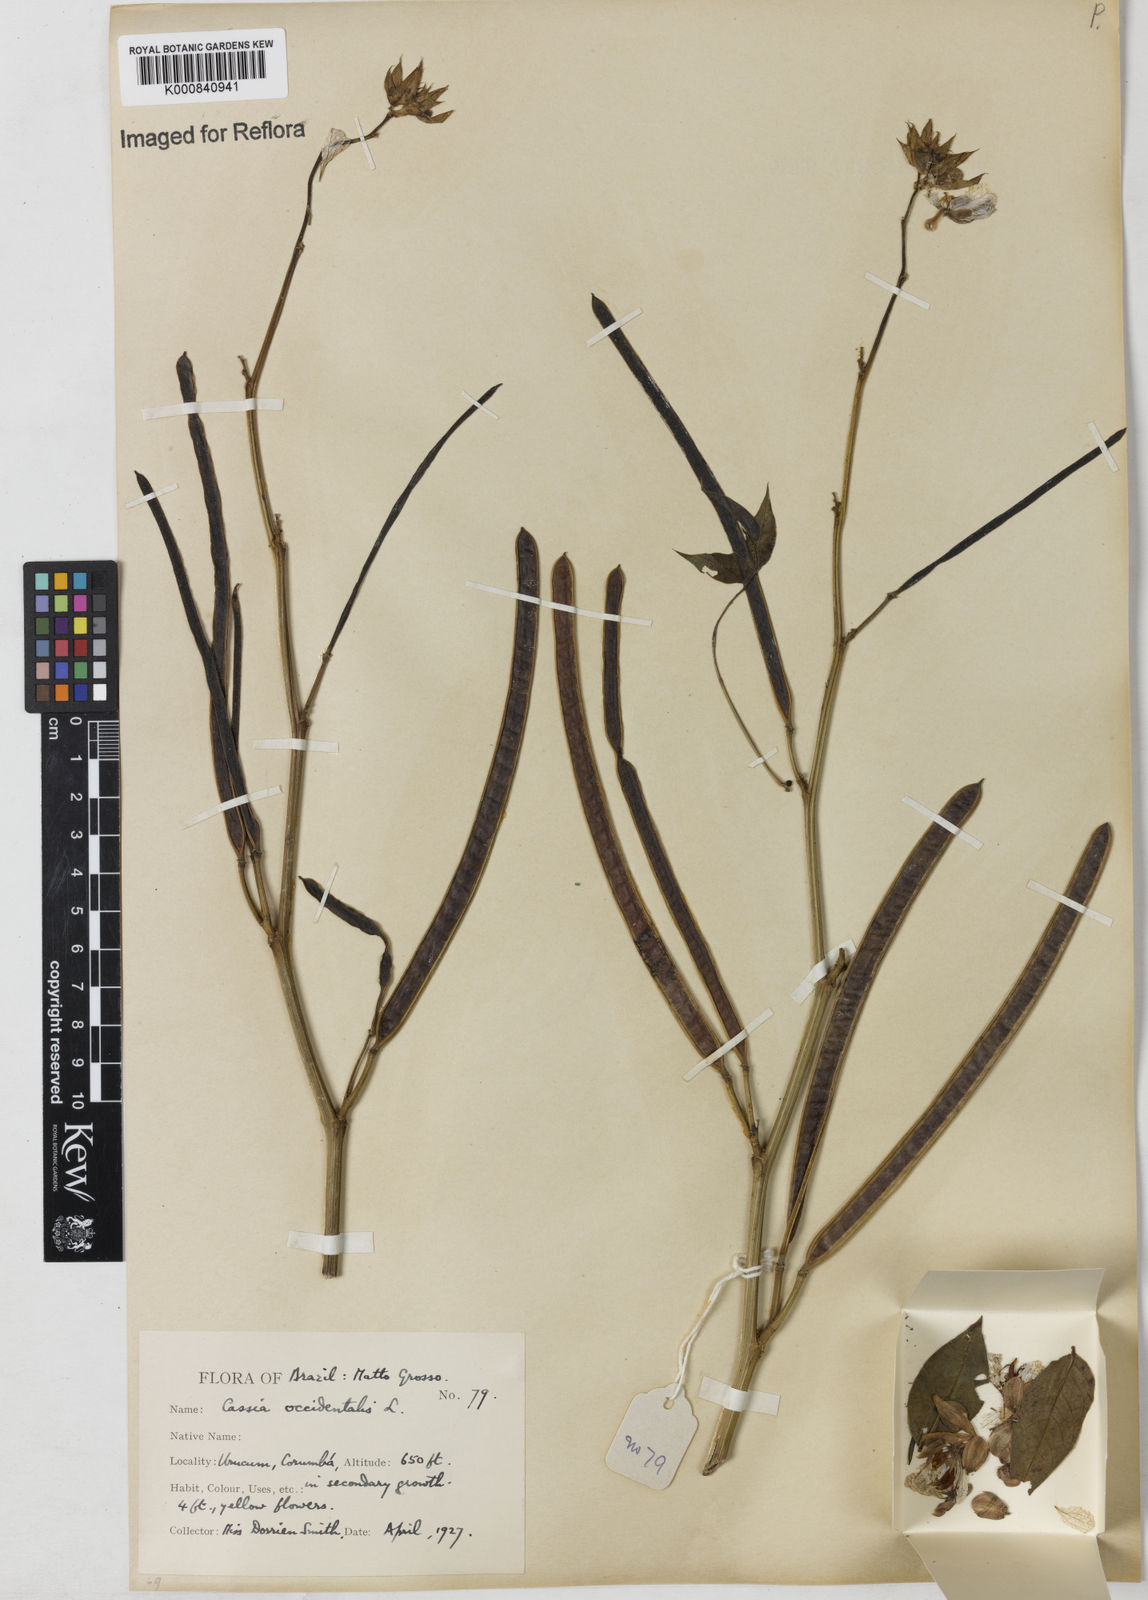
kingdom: Plantae
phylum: Tracheophyta
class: Magnoliopsida
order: Fabales
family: Fabaceae
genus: Senna
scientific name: Senna occidentalis
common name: Septicweed
